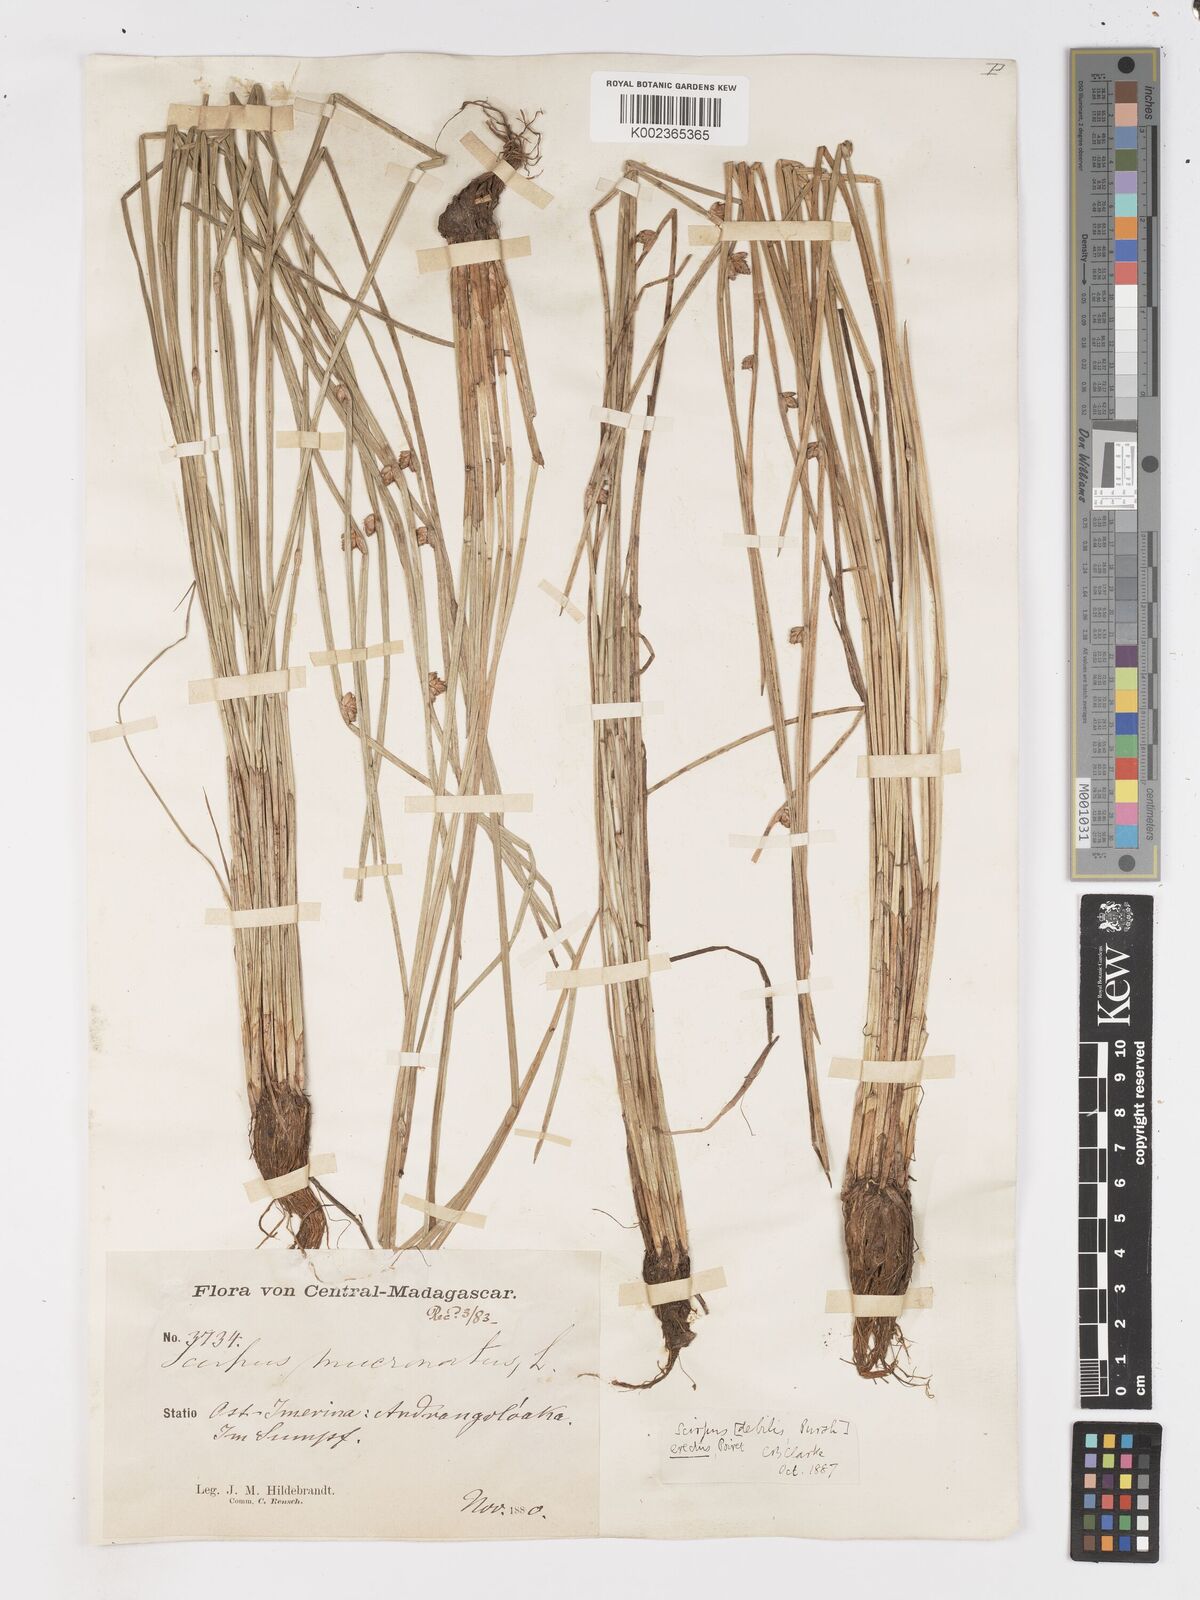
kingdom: Plantae
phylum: Tracheophyta
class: Liliopsida
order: Poales
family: Cyperaceae
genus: Schoenoplectiella
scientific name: Schoenoplectiella juncoides
